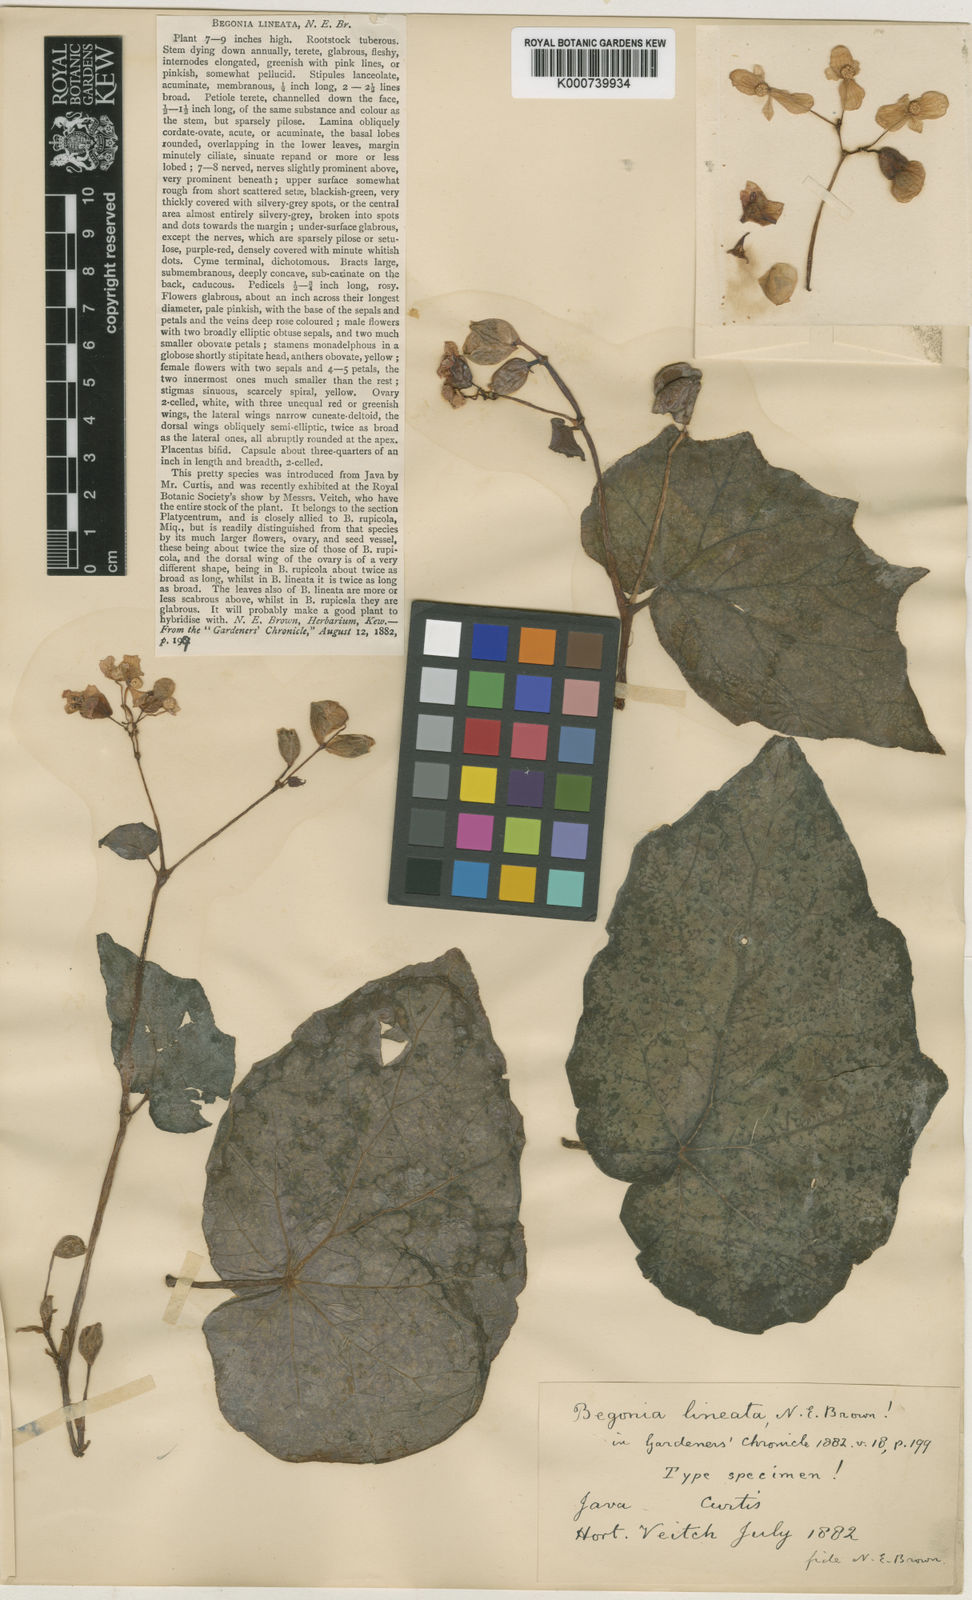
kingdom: Plantae
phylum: Tracheophyta
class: Magnoliopsida
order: Cucurbitales
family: Begoniaceae
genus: Begonia
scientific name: Begonia tenuifolia
